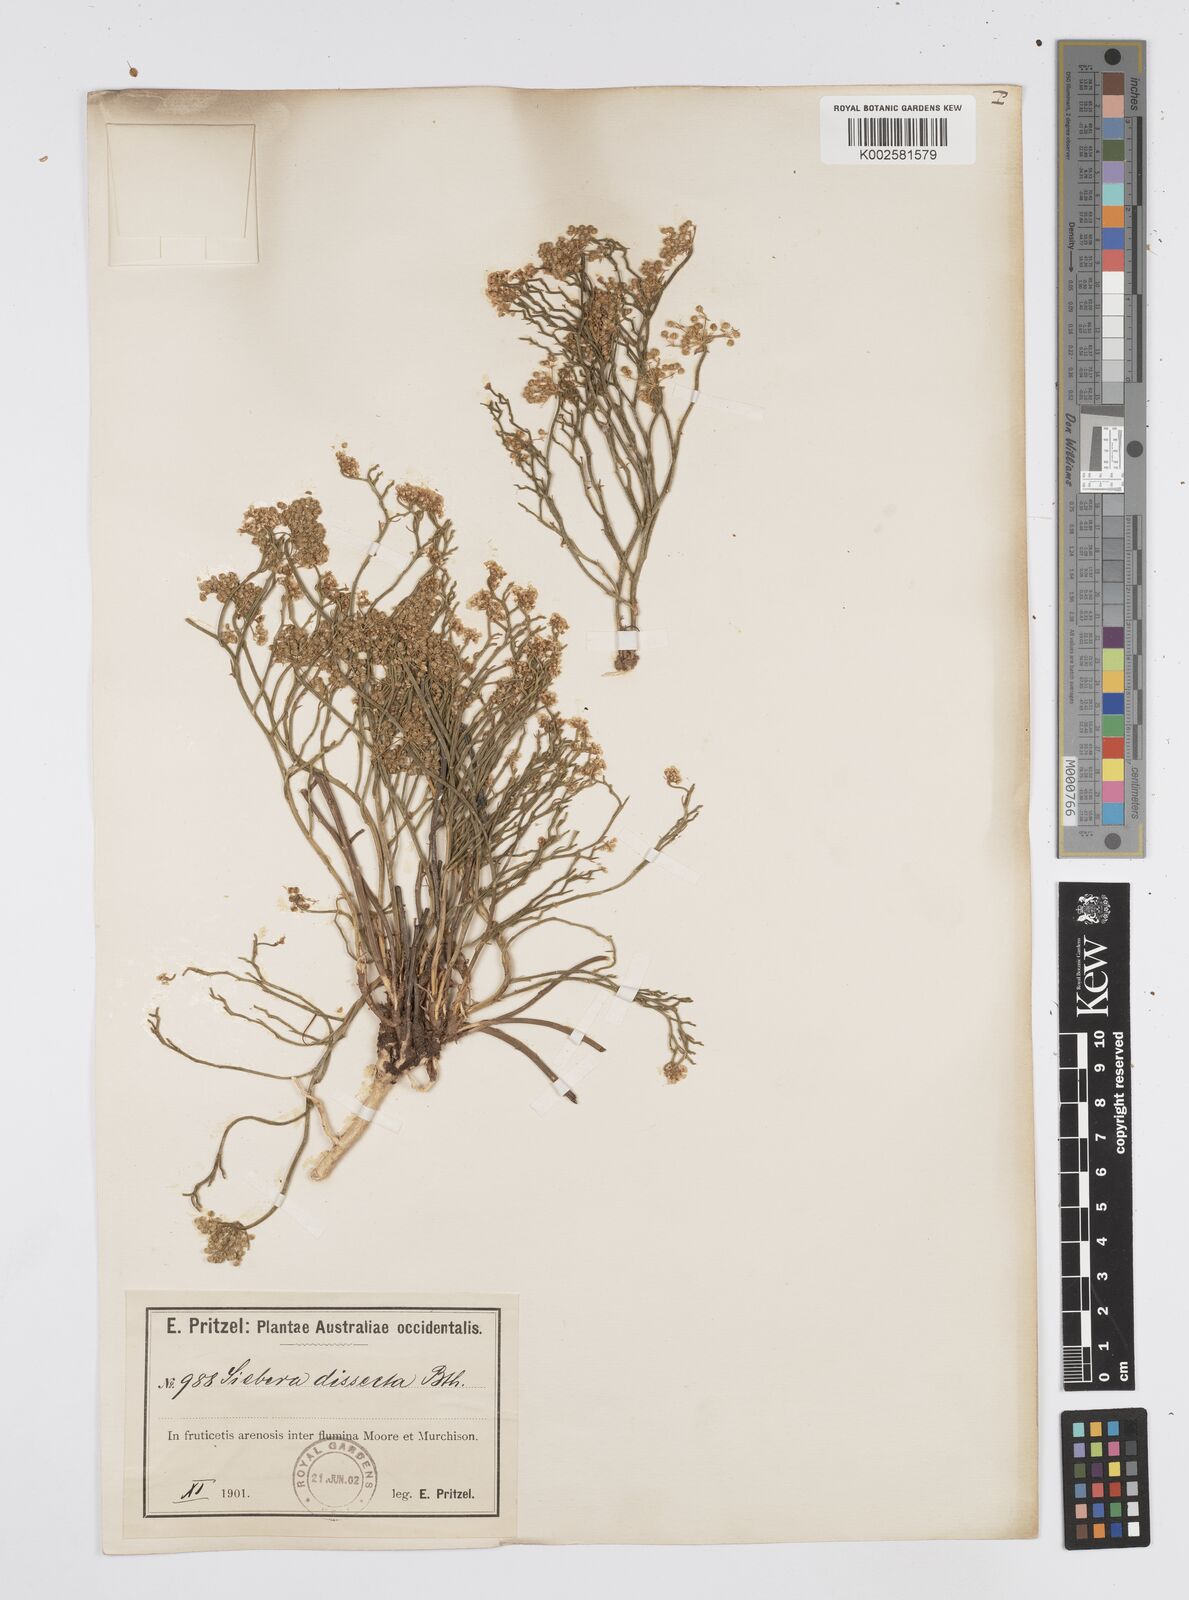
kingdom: Plantae
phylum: Tracheophyta
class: Magnoliopsida
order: Apiales
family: Apiaceae
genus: Platysace
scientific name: Platysace ramosissima
